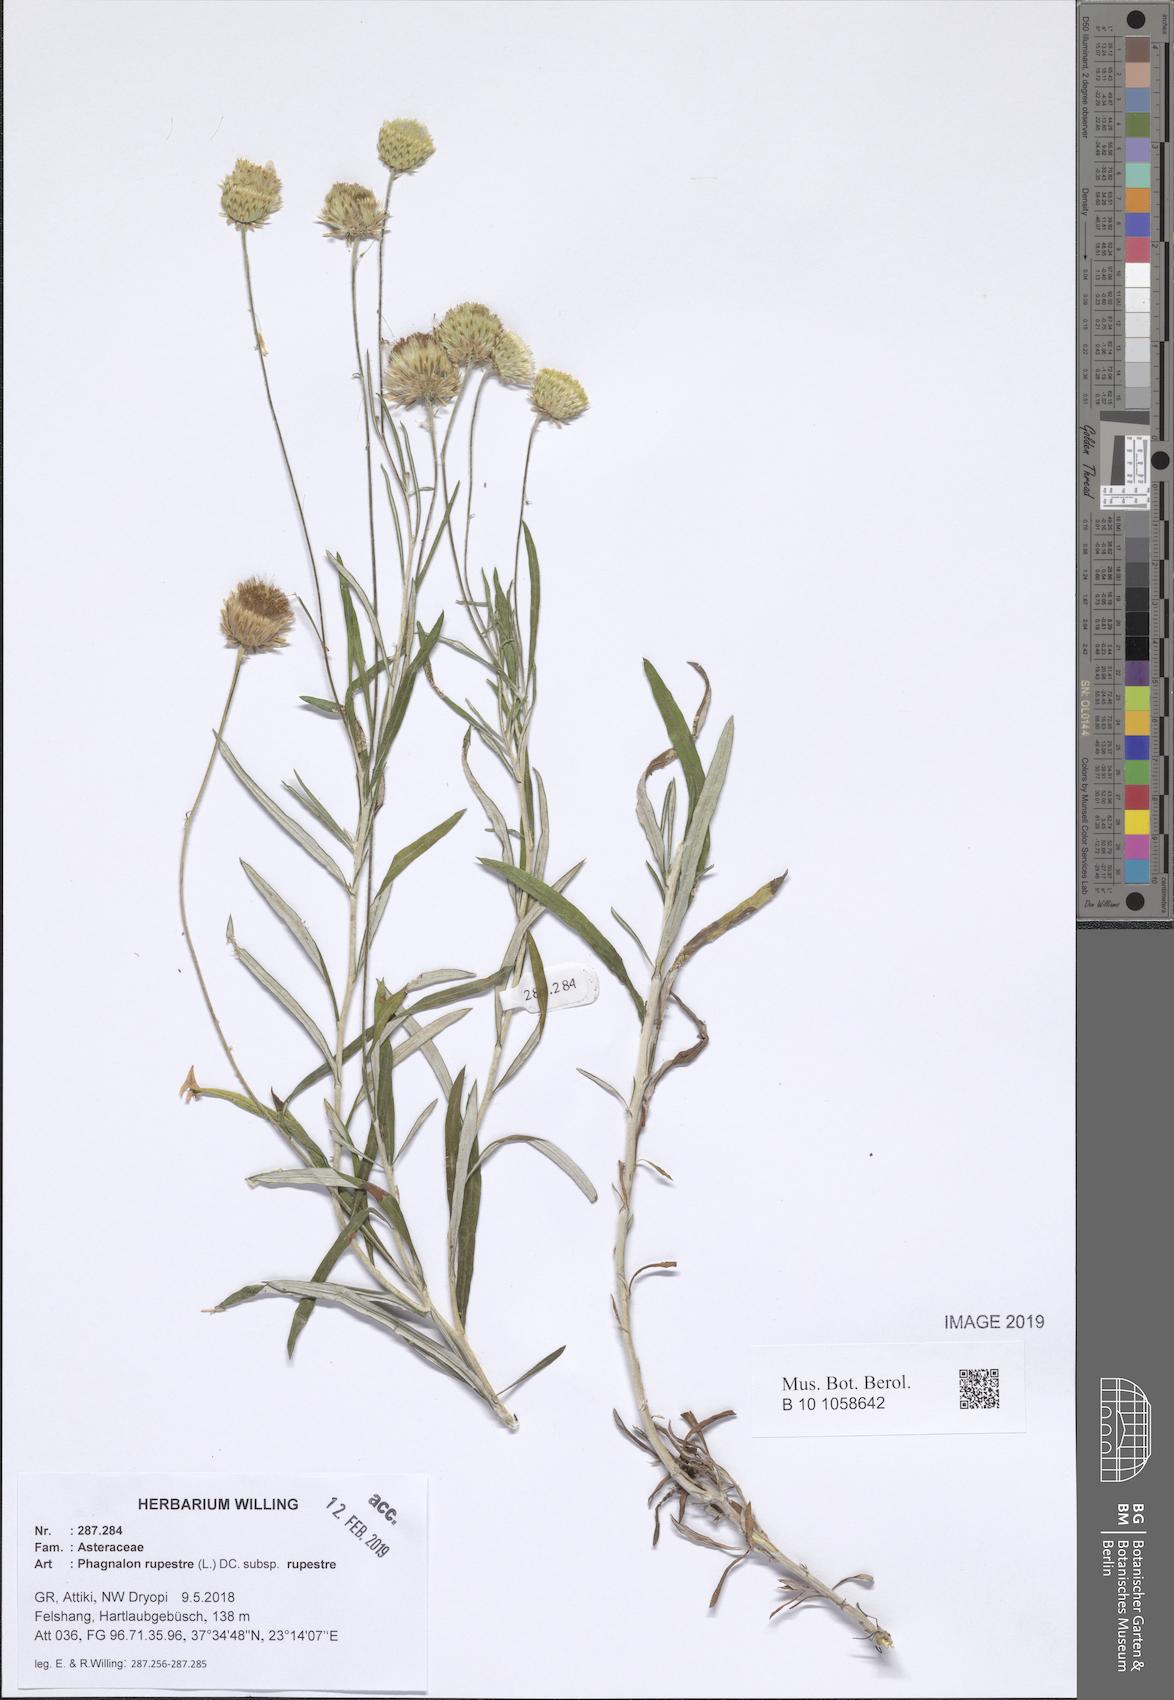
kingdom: Plantae
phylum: Tracheophyta
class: Magnoliopsida
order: Asterales
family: Asteraceae
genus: Phagnalon
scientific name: Phagnalon rupestre
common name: Rock phagnalon
